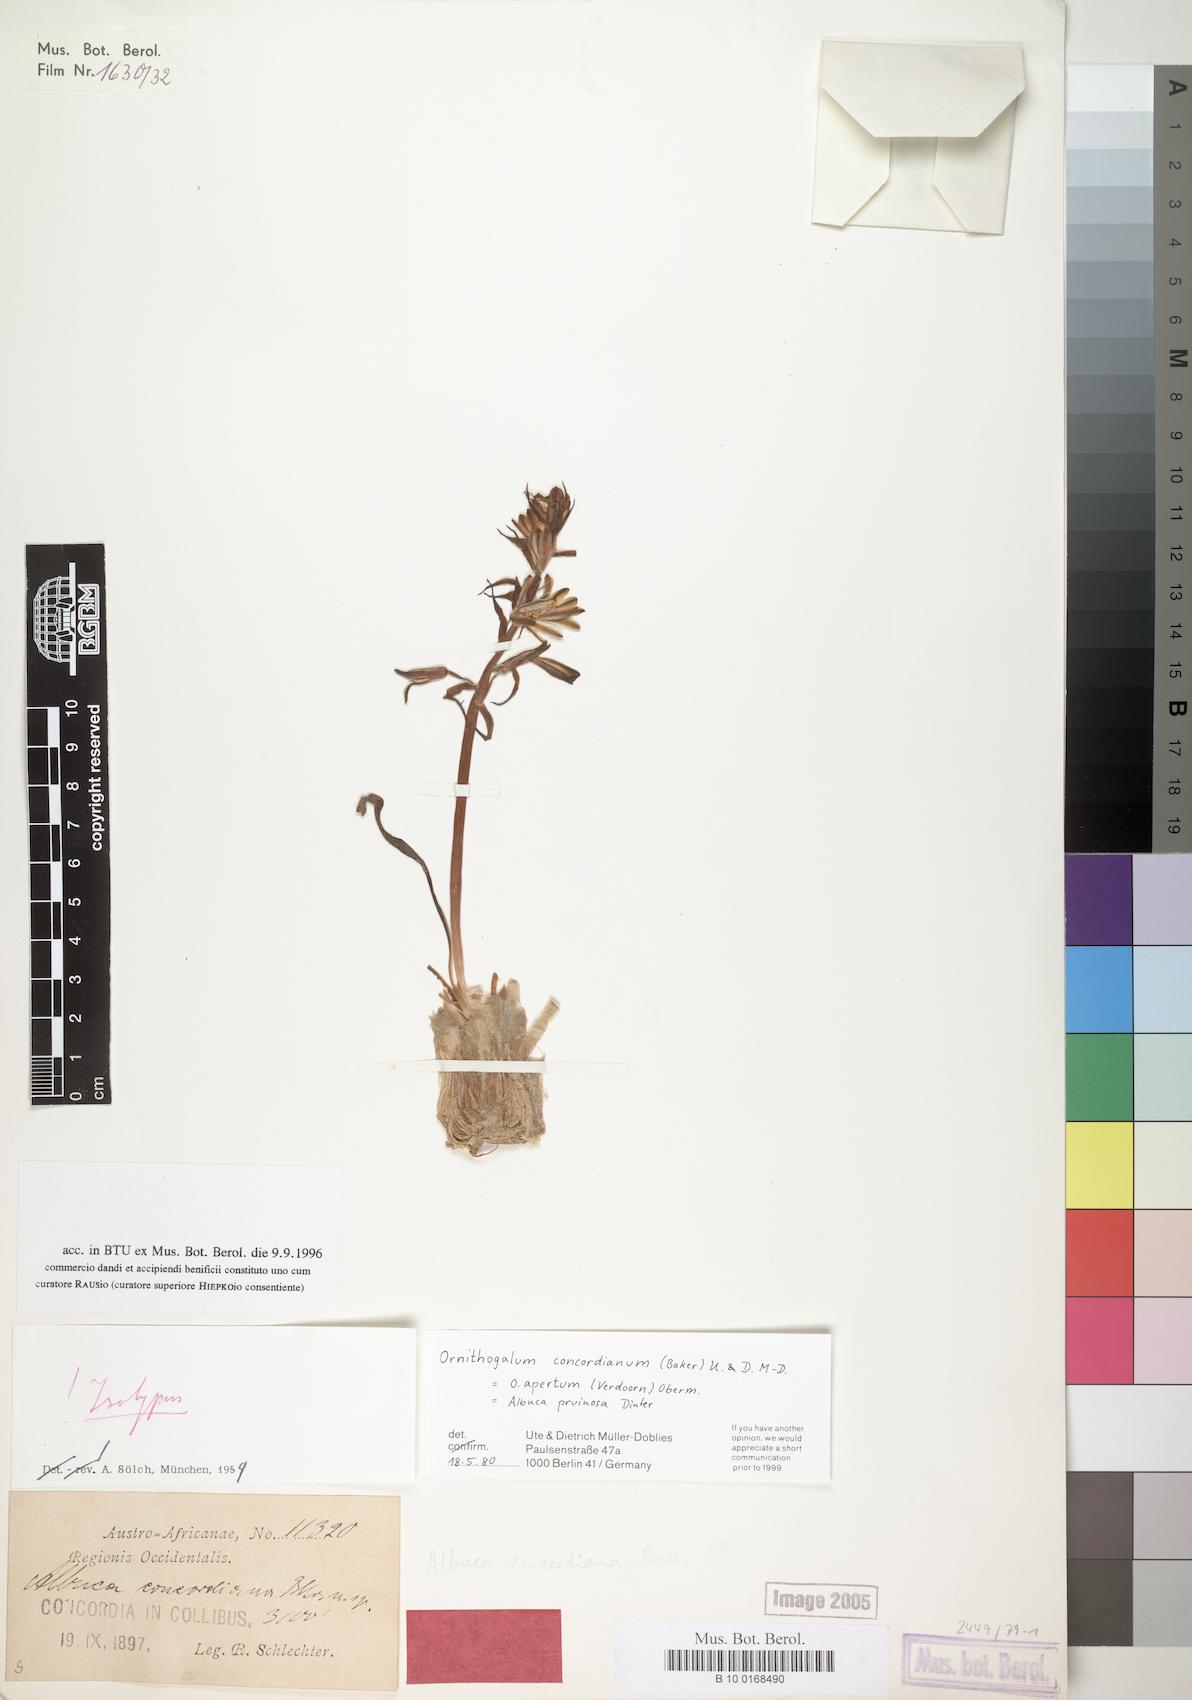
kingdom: Plantae
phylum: Tracheophyta
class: Liliopsida
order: Asparagales
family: Asparagaceae
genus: Albuca
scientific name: Albuca concordiana
